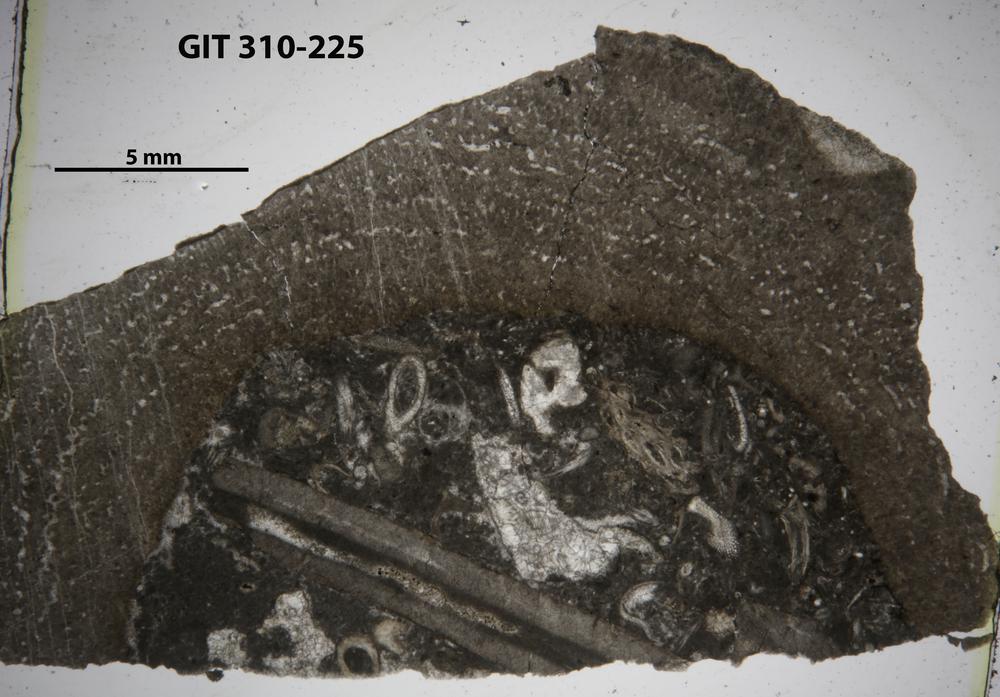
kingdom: Animalia
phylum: Porifera
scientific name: Porifera
